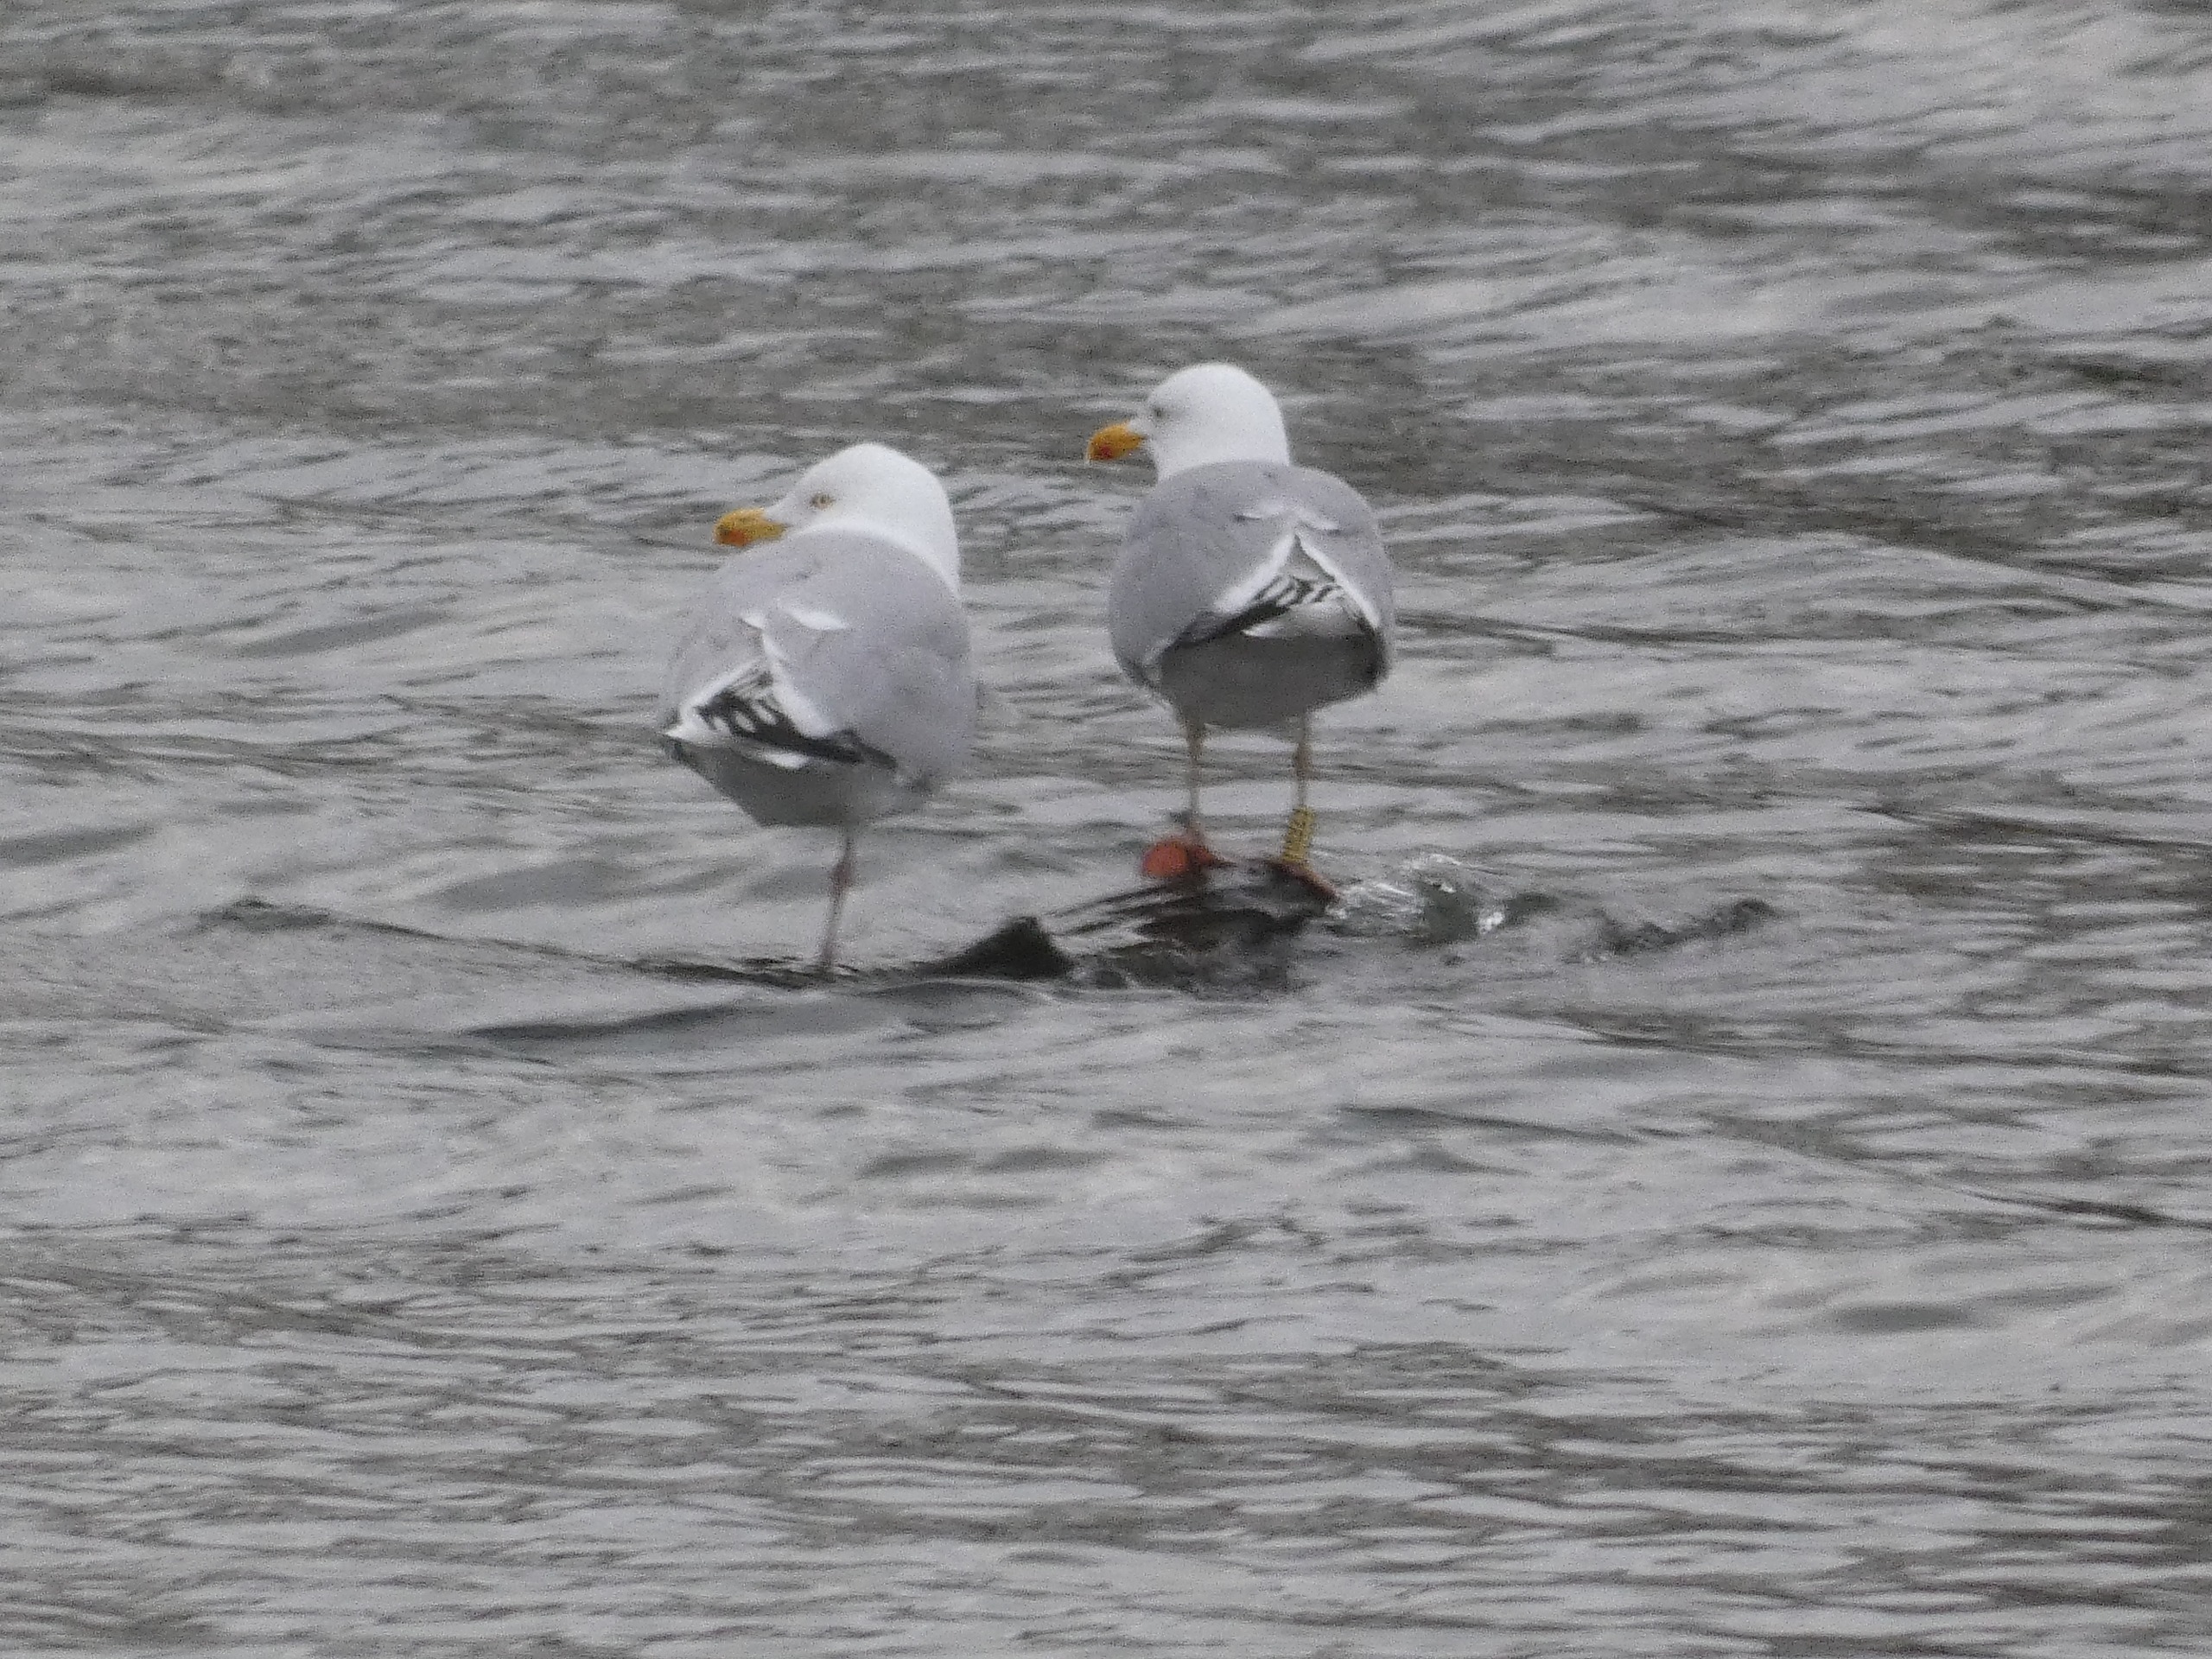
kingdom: Animalia
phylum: Chordata
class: Aves
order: Charadriiformes
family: Laridae
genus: Larus
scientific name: Larus argentatus
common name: Sølvmåge
